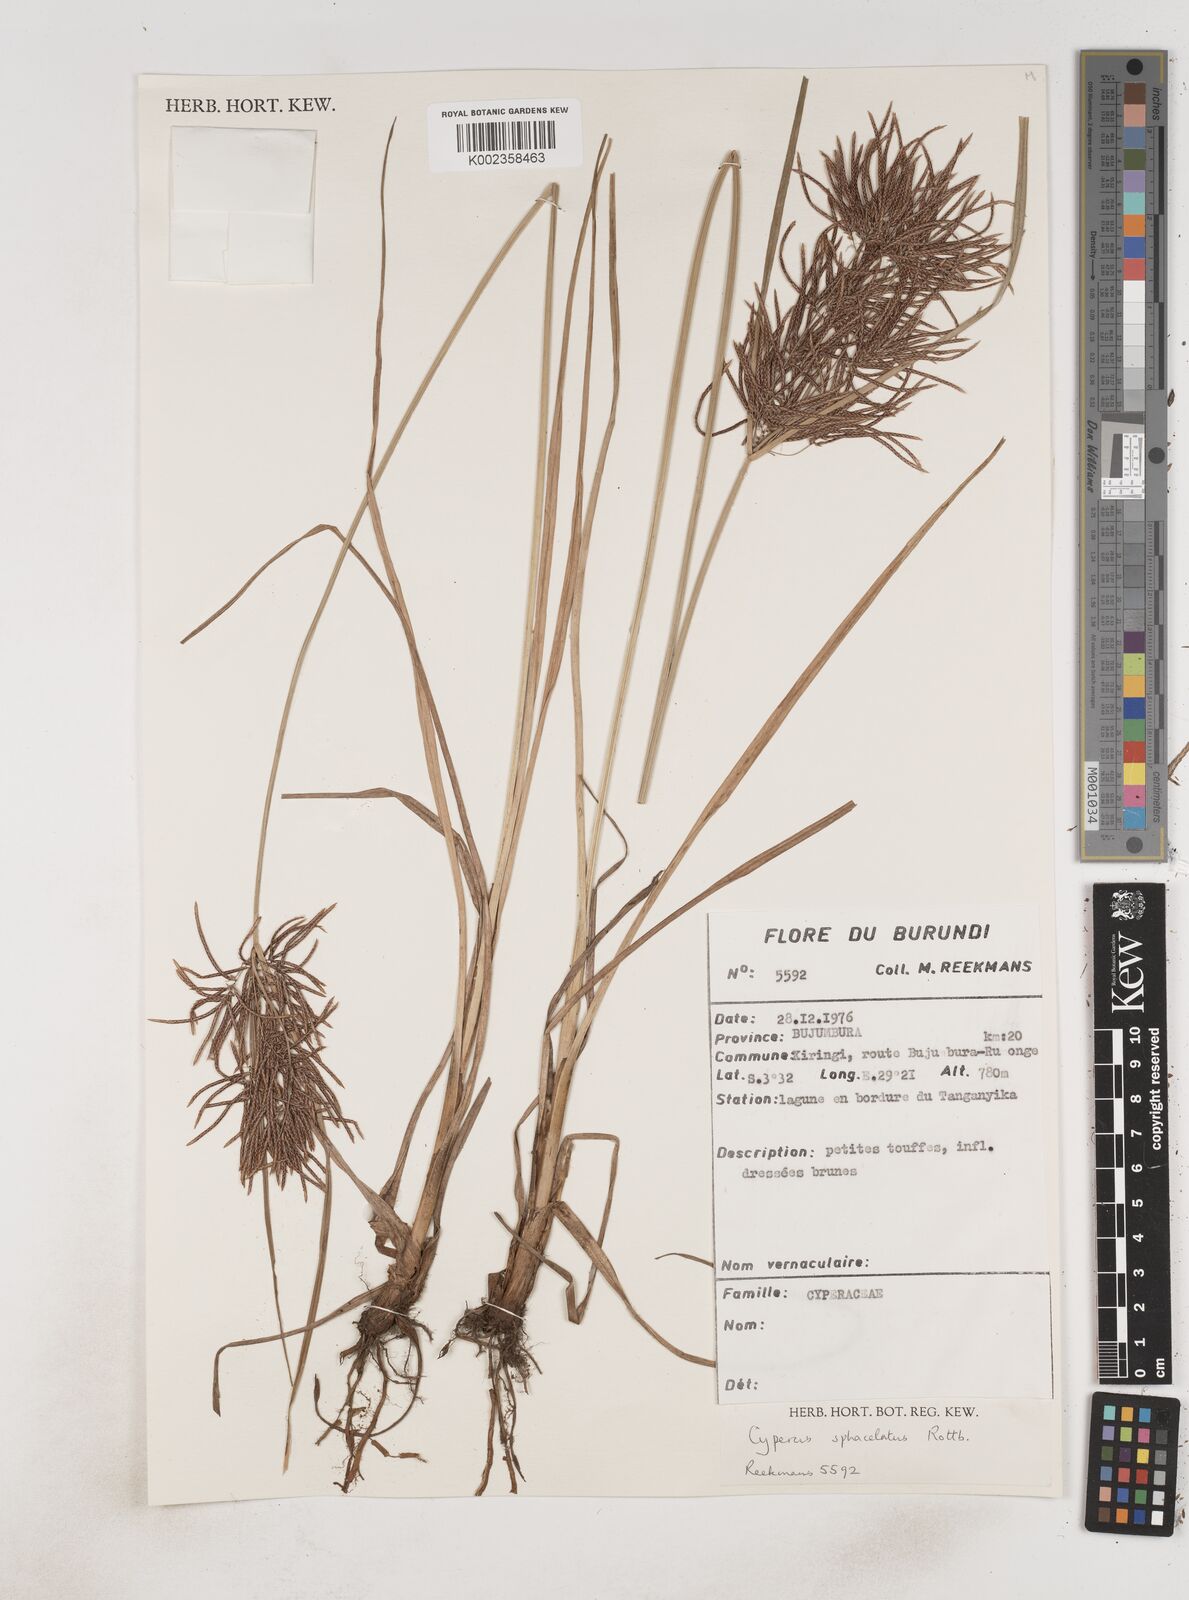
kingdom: Plantae
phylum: Tracheophyta
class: Liliopsida
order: Poales
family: Cyperaceae
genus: Cyperus
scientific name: Cyperus sphacelatus
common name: Roadside flatsedge
